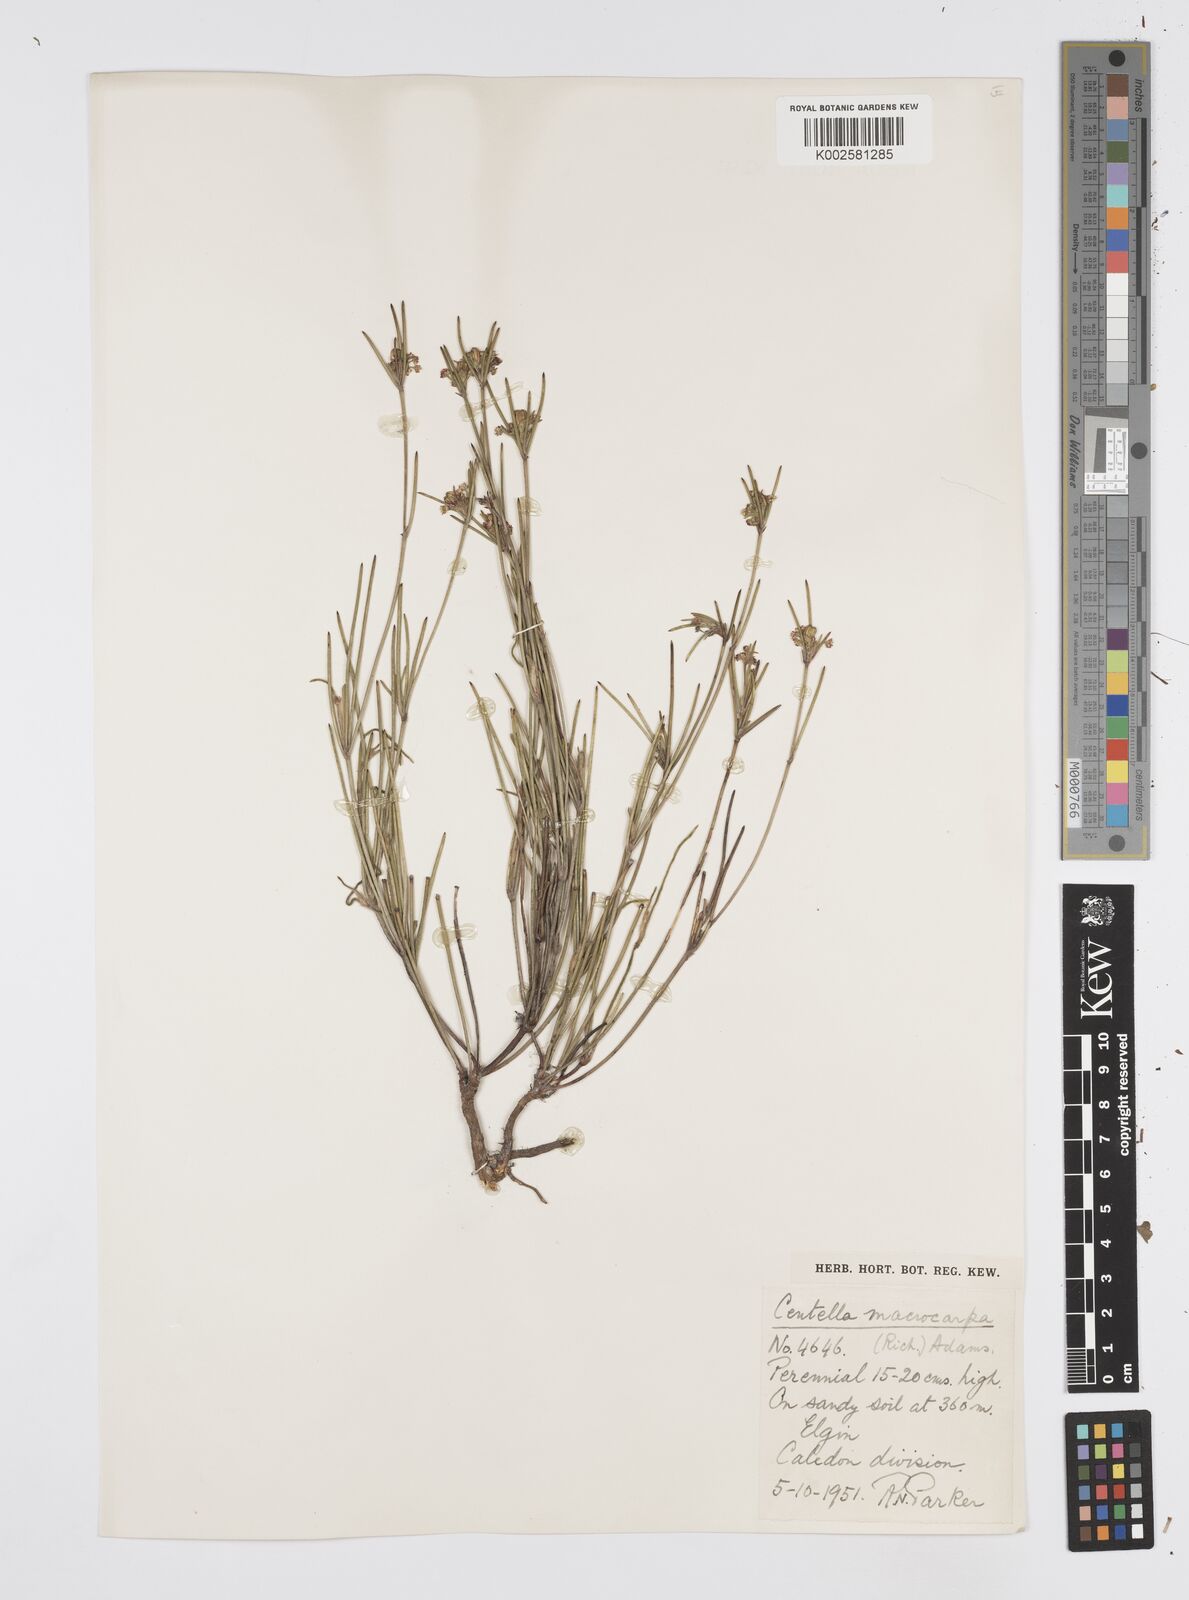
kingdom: Plantae
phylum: Tracheophyta
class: Magnoliopsida
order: Apiales
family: Apiaceae
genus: Centella
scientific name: Centella macrocarpa
